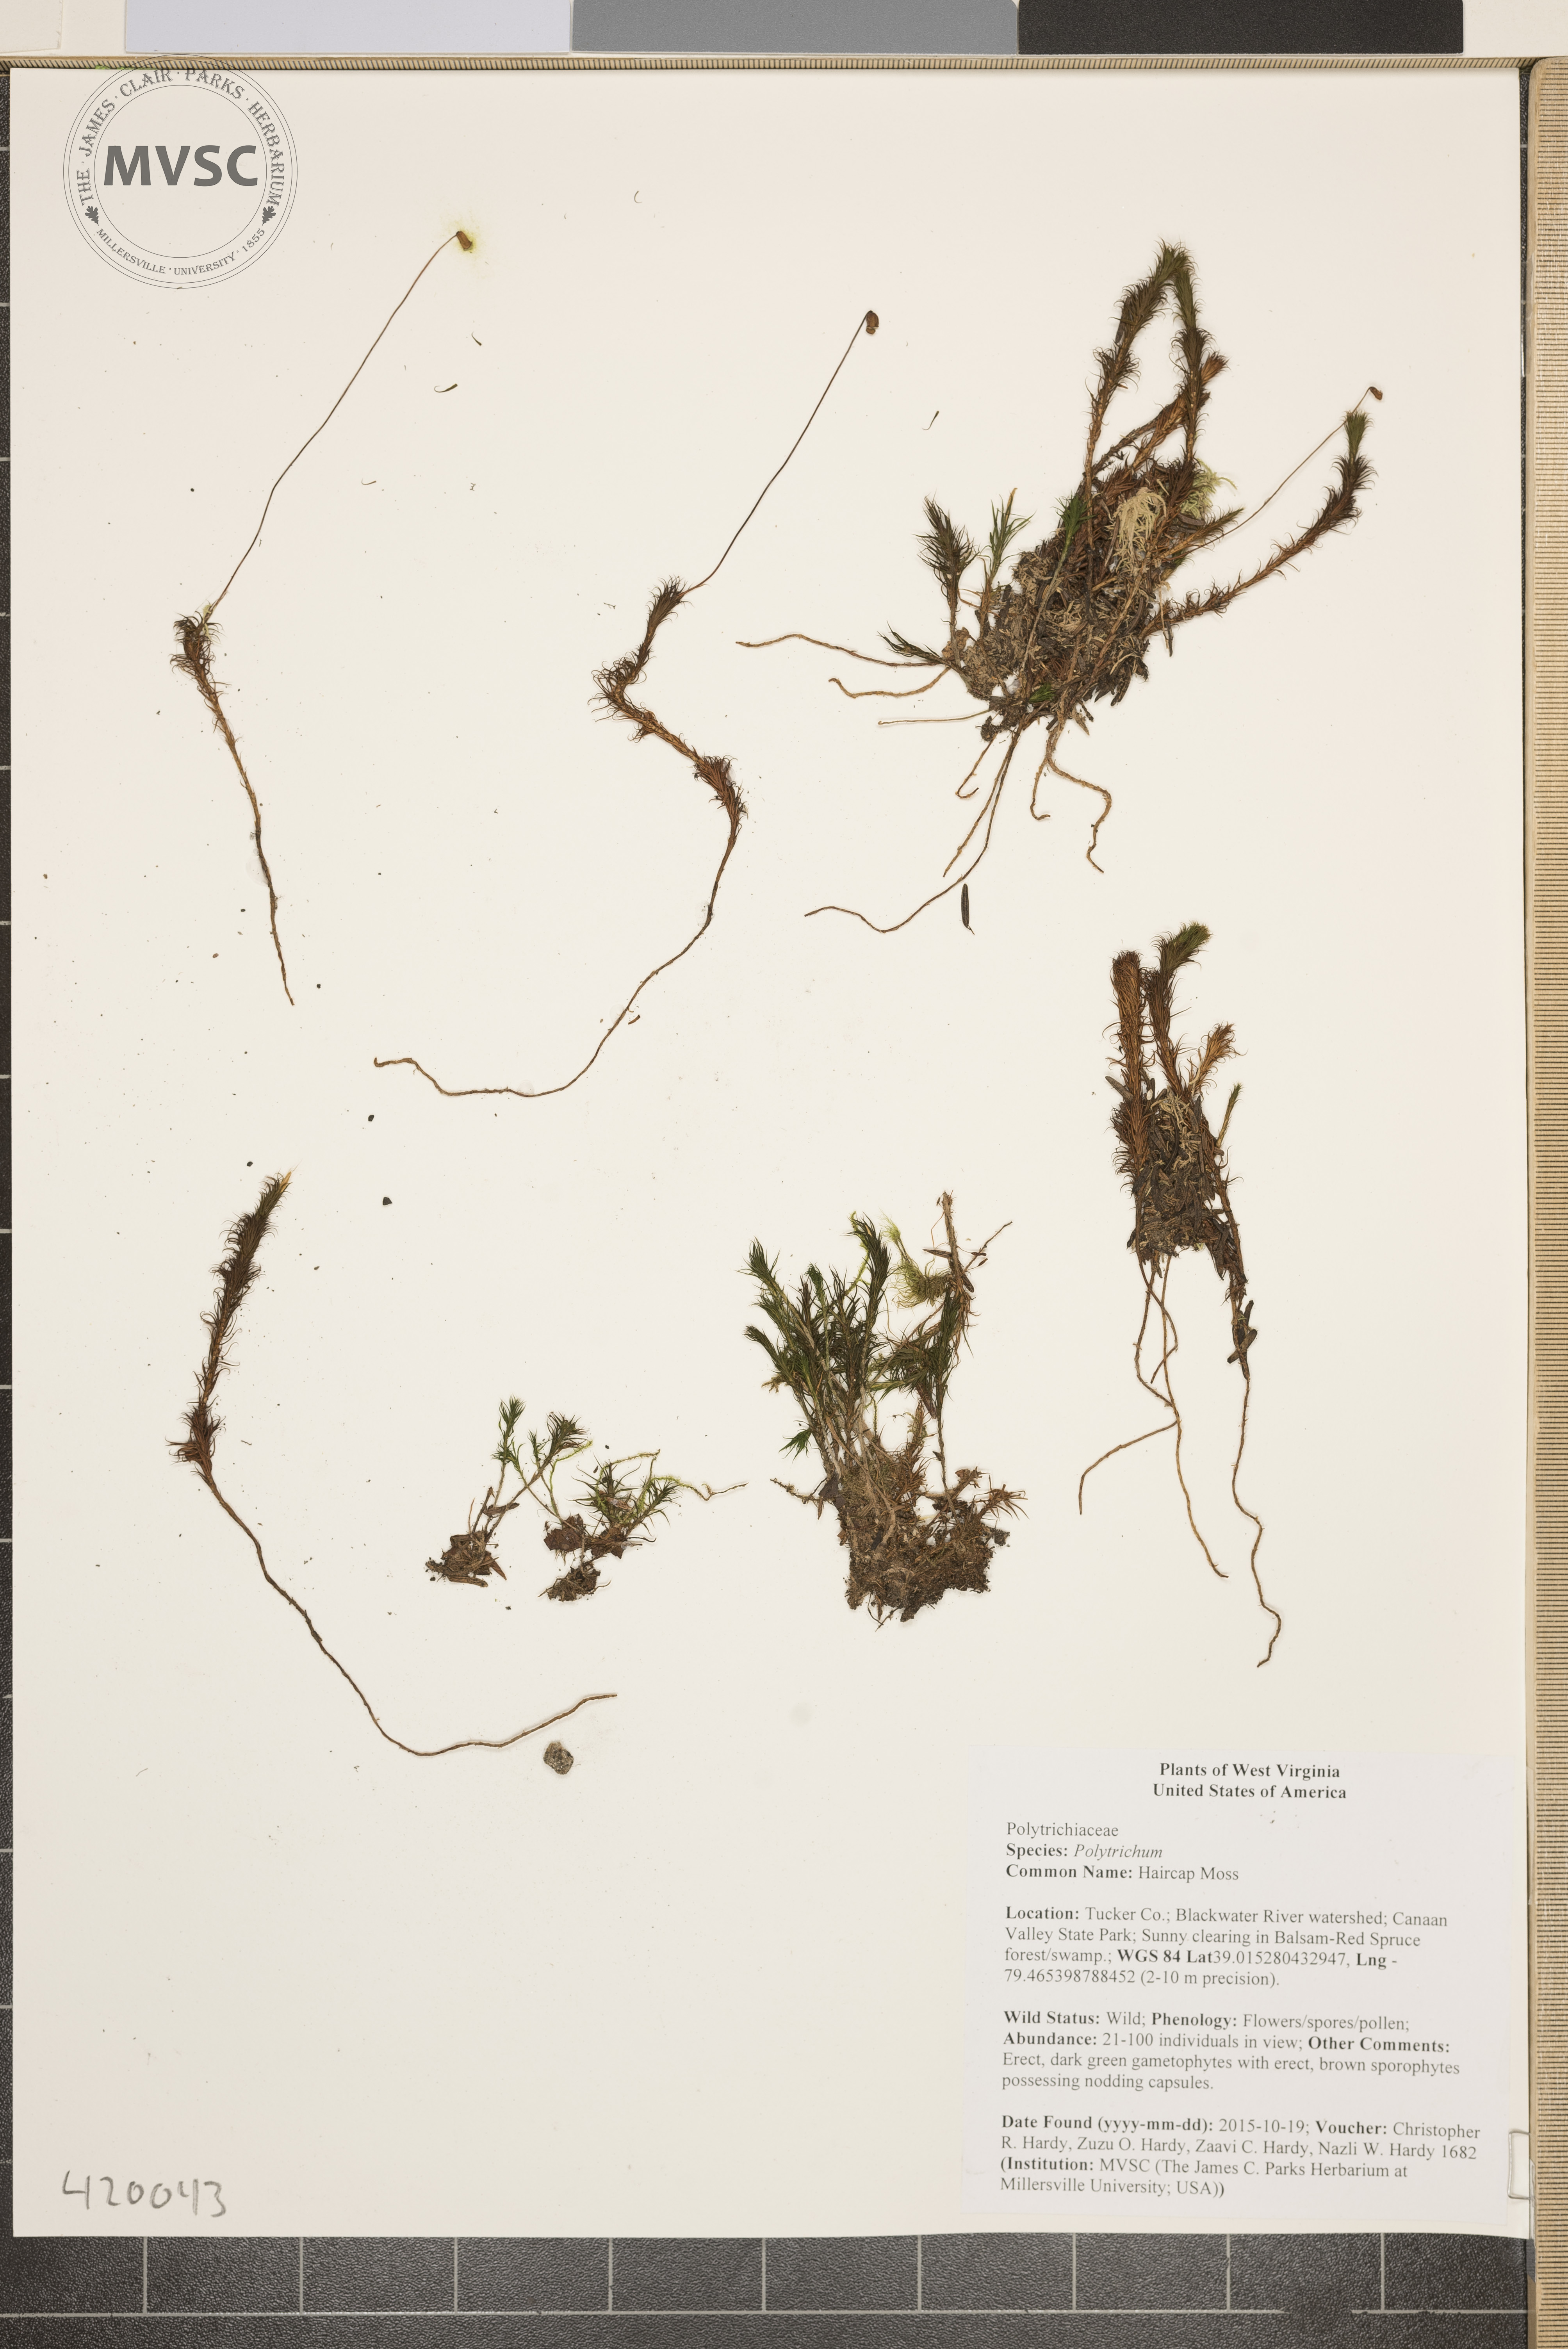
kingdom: Plantae
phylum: Bryophyta
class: Polytrichopsida
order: Polytrichales
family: Polytrichaceae
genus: Polytrichum
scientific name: Polytrichum
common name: Moss
